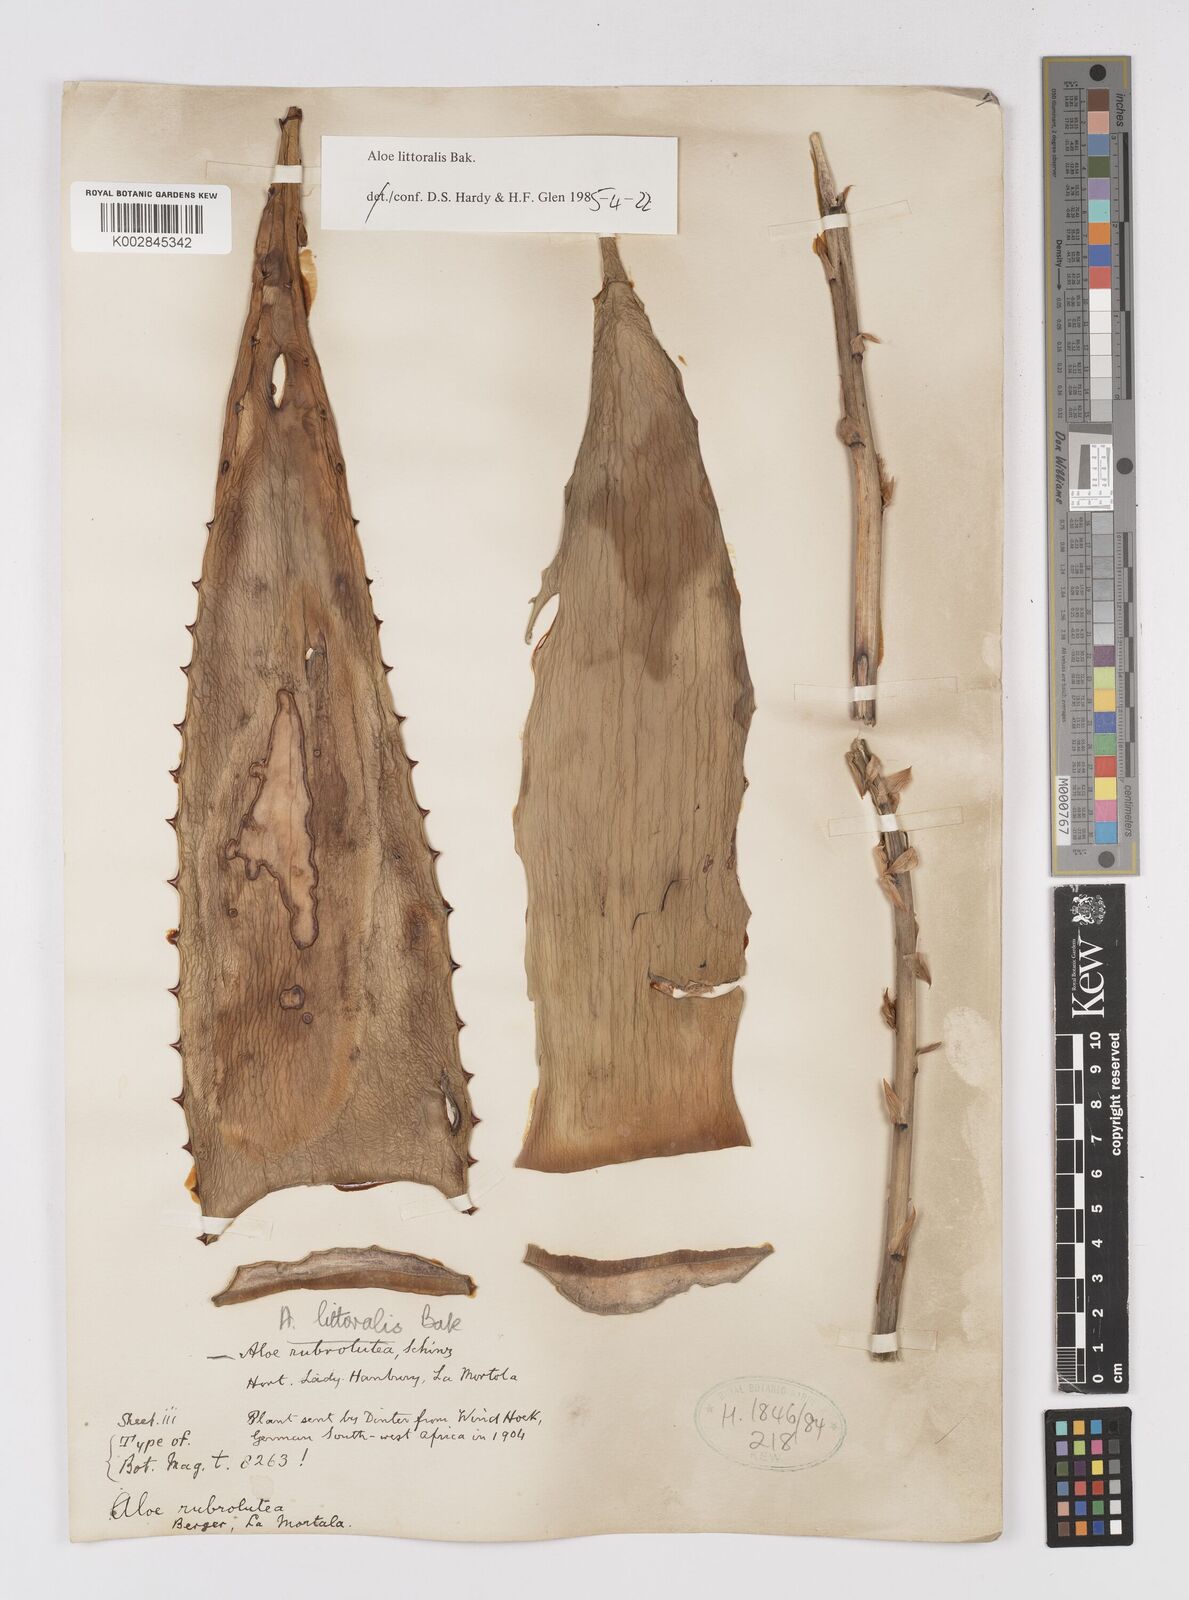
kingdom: Plantae
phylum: Tracheophyta
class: Liliopsida
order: Asparagales
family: Asphodelaceae
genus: Aloe
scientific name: Aloe littoralis
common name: Luanda tree aloe
